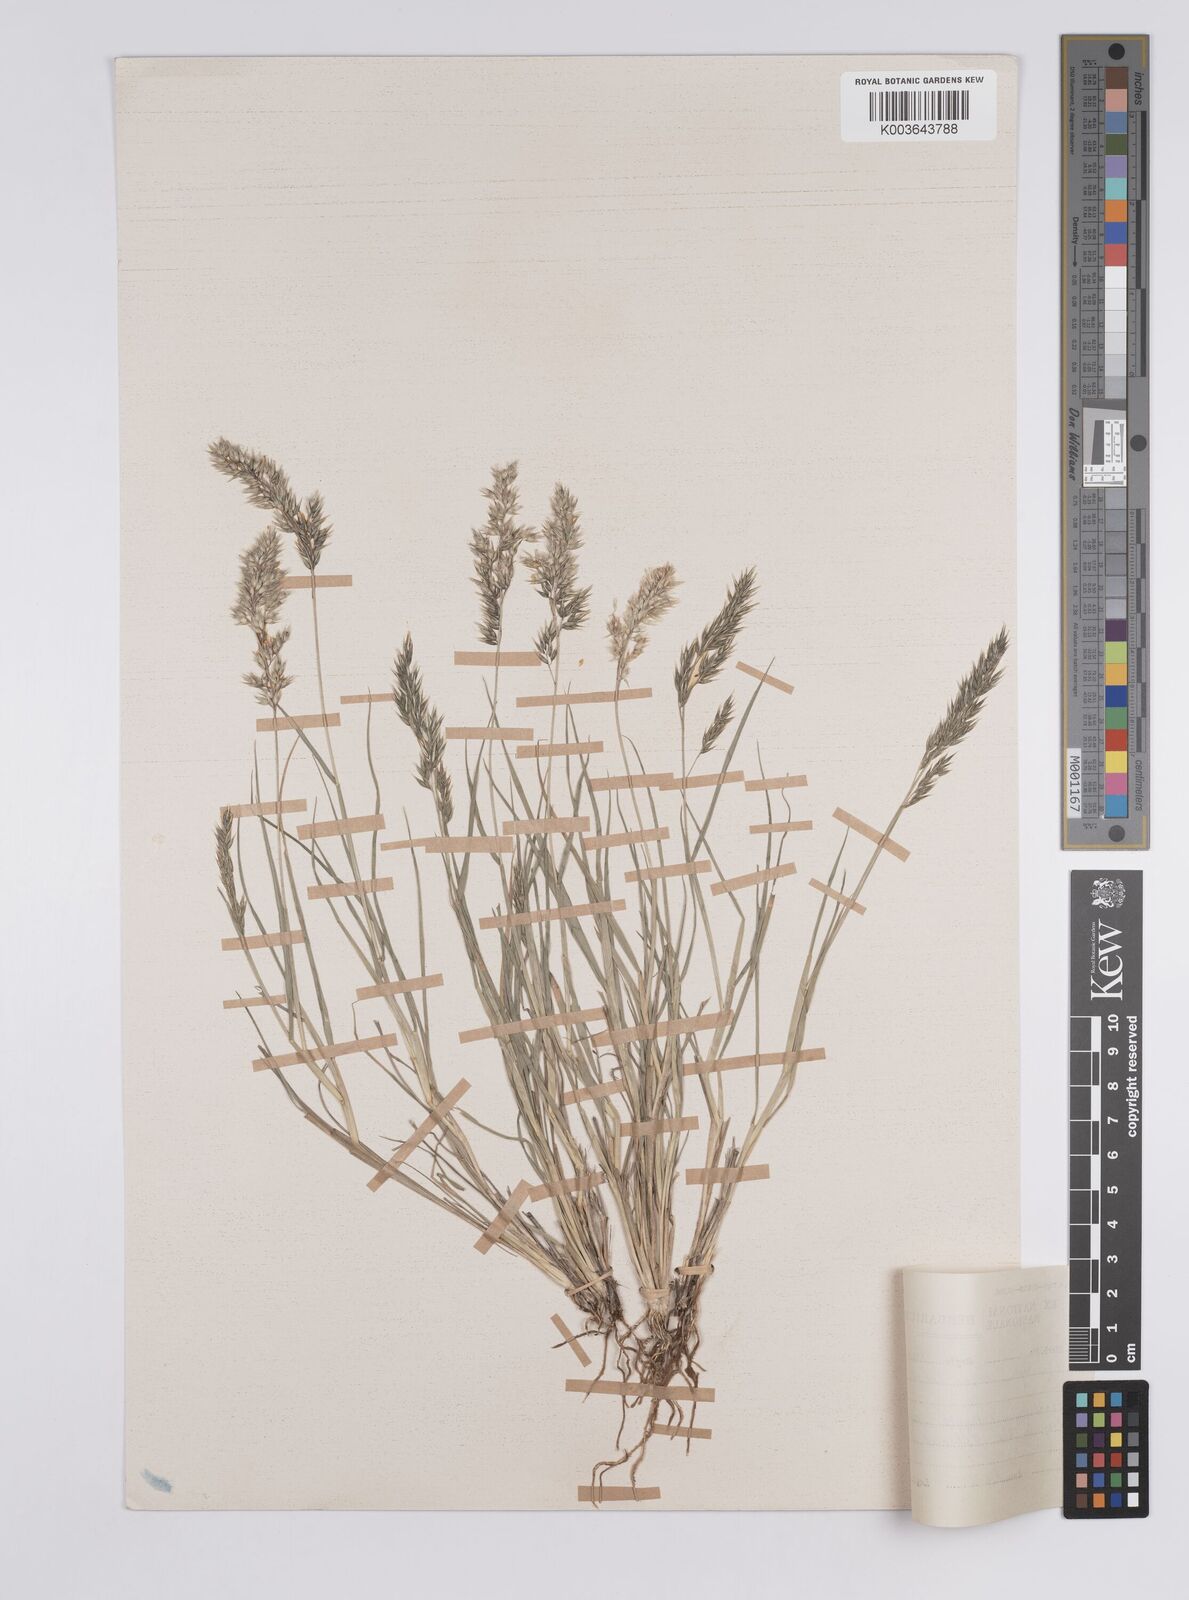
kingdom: Plantae
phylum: Tracheophyta
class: Liliopsida
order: Poales
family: Poaceae
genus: Enneapogon
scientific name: Enneapogon scaber
